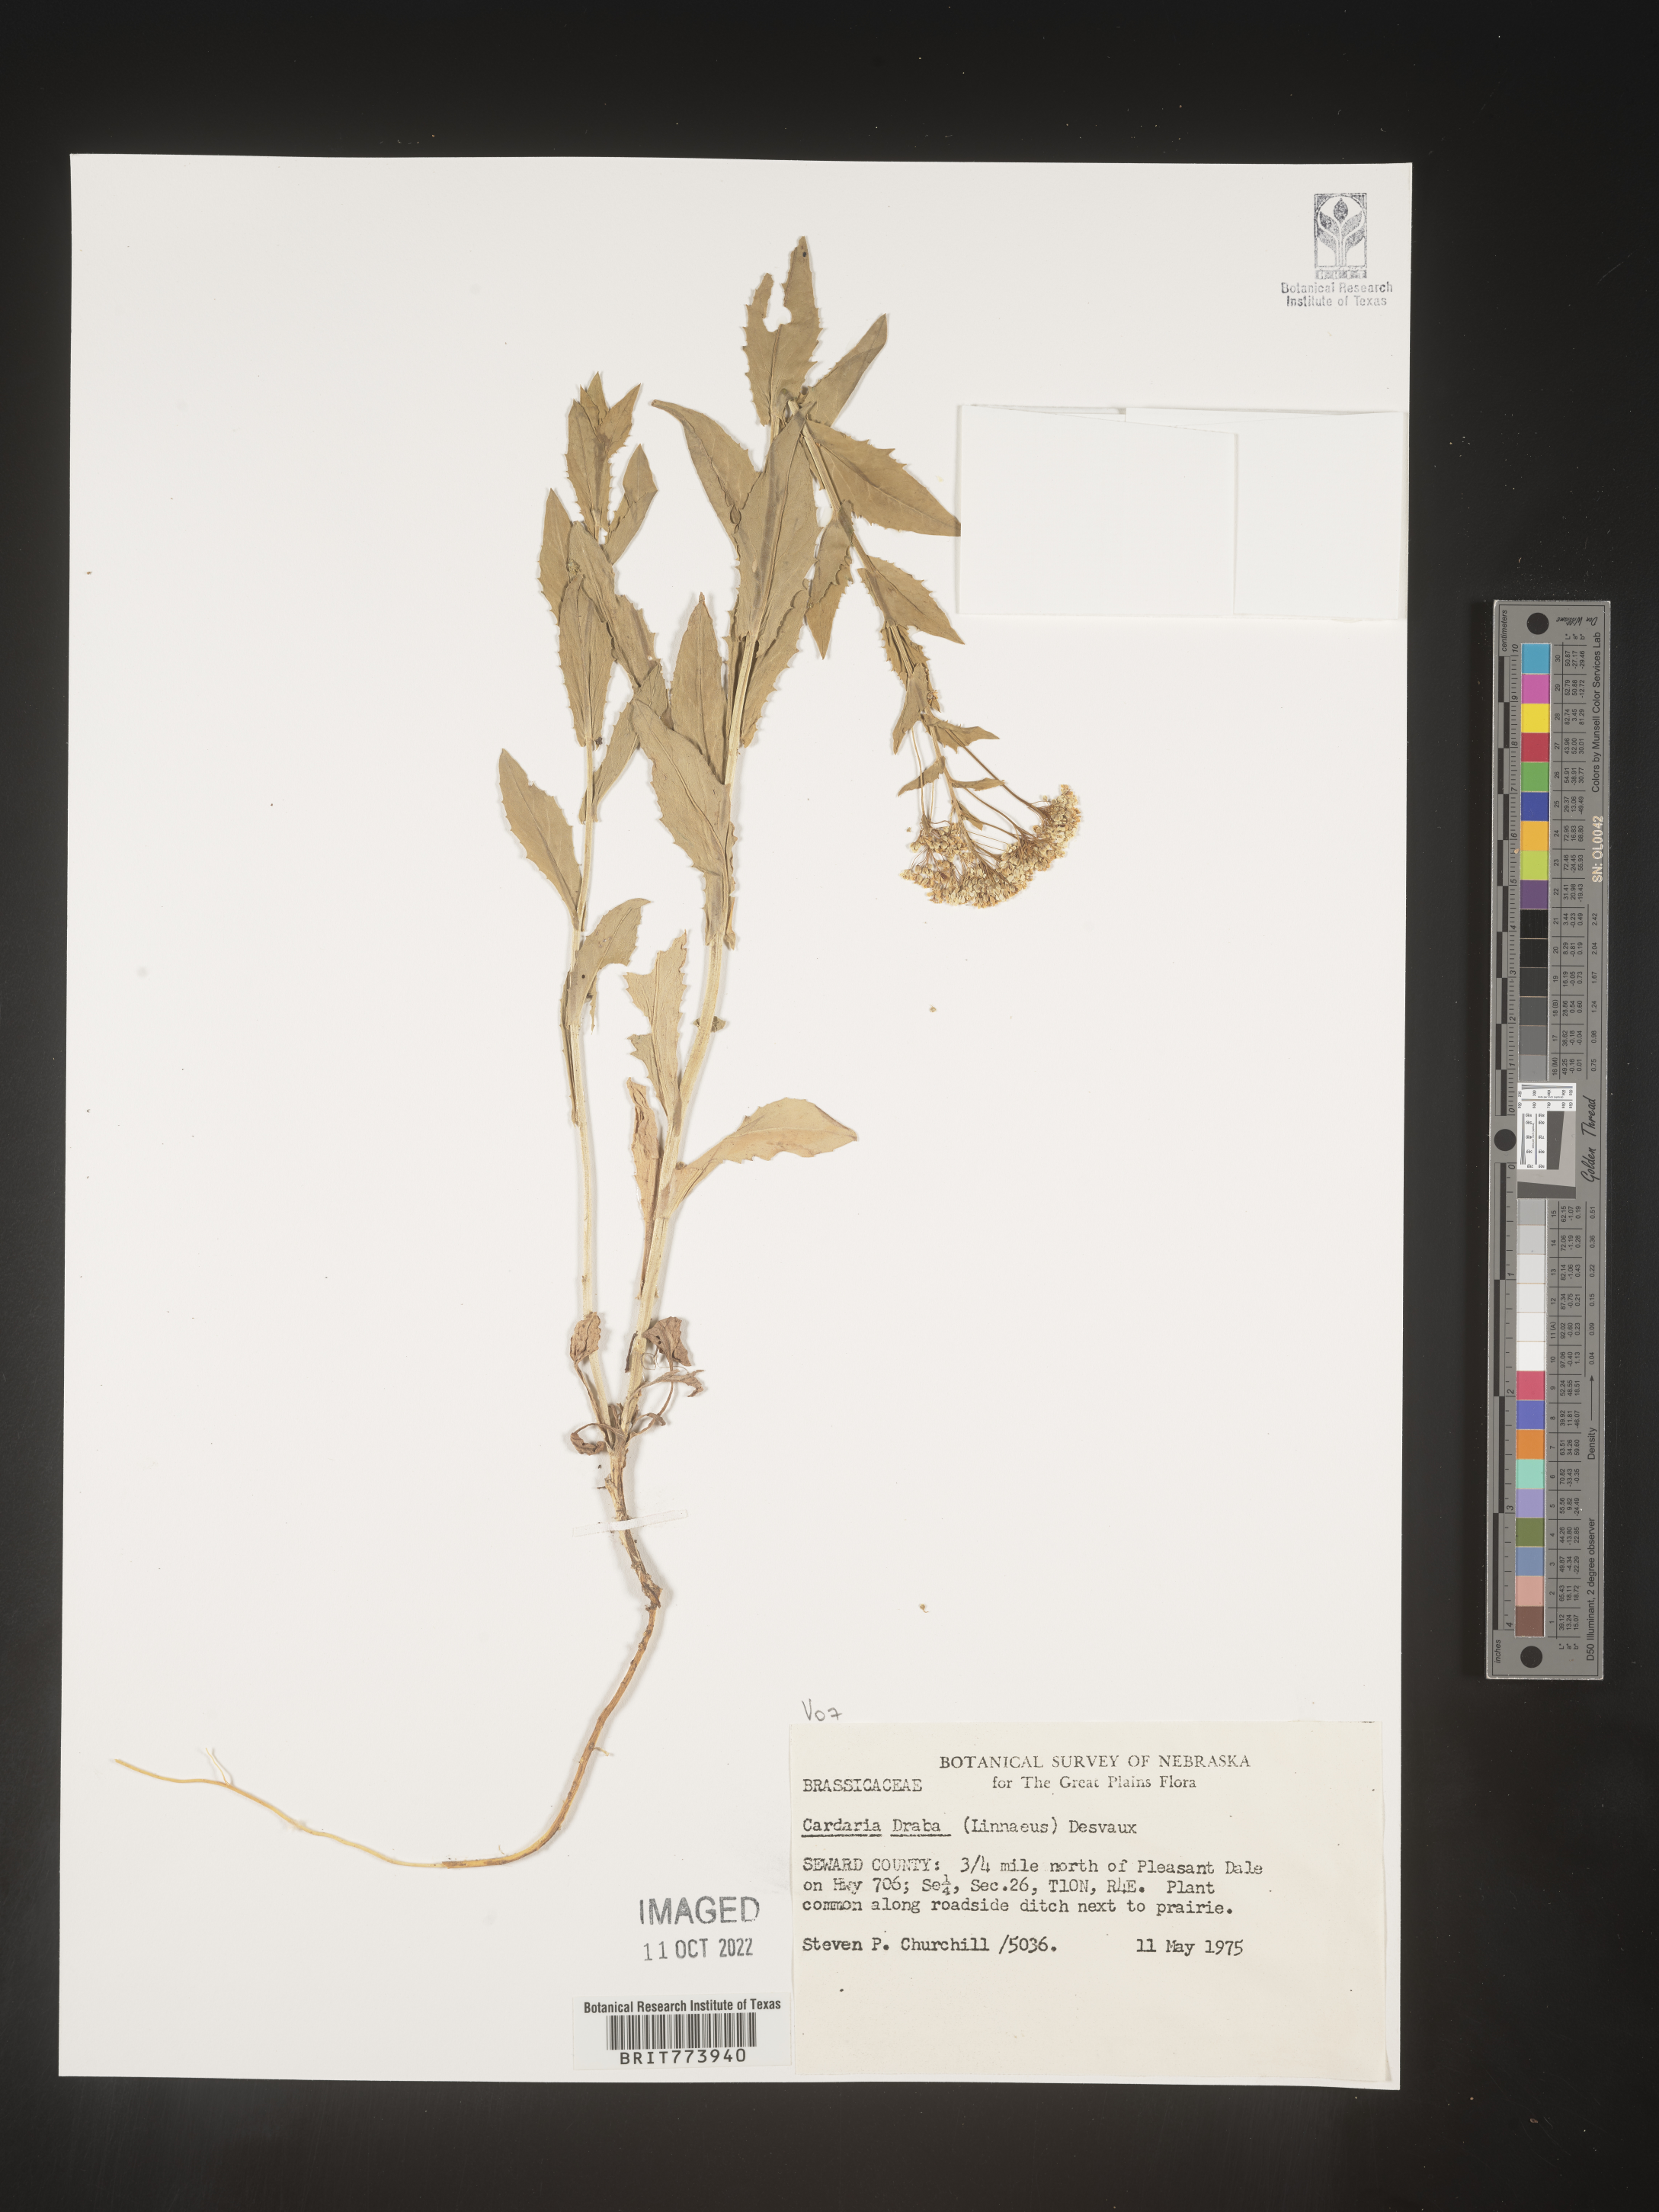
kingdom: Plantae
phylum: Tracheophyta
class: Magnoliopsida
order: Brassicales
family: Brassicaceae
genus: Lepidium
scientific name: Lepidium draba
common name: Hoary cress
